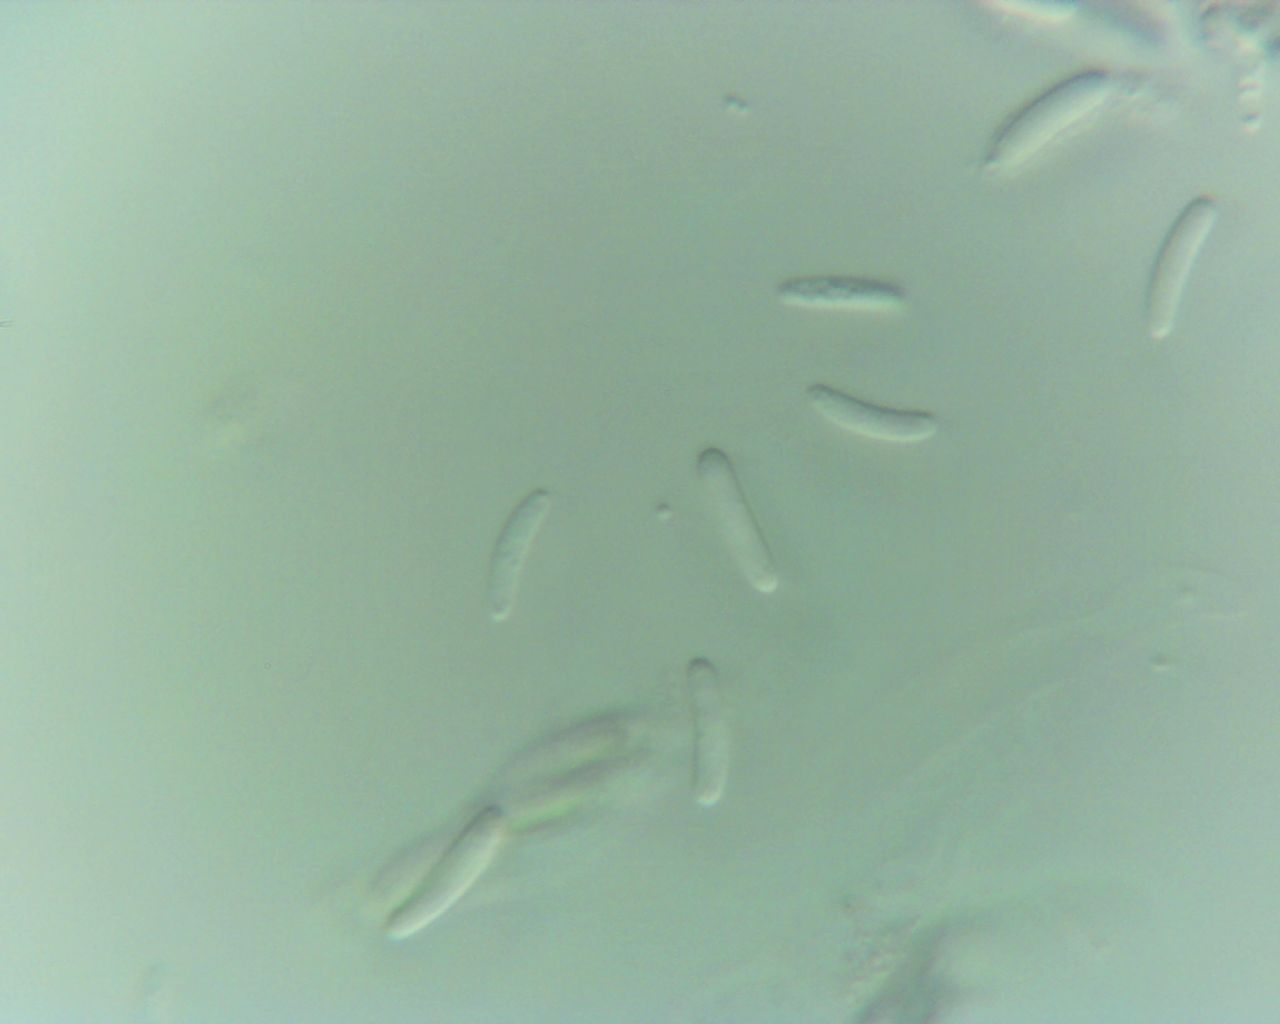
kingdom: Fungi
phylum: Ascomycota
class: Sordariomycetes
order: Diaporthales
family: Valsaceae
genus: Cytospora
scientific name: Cytospora pinastri
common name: ædelgran-kulknippe
